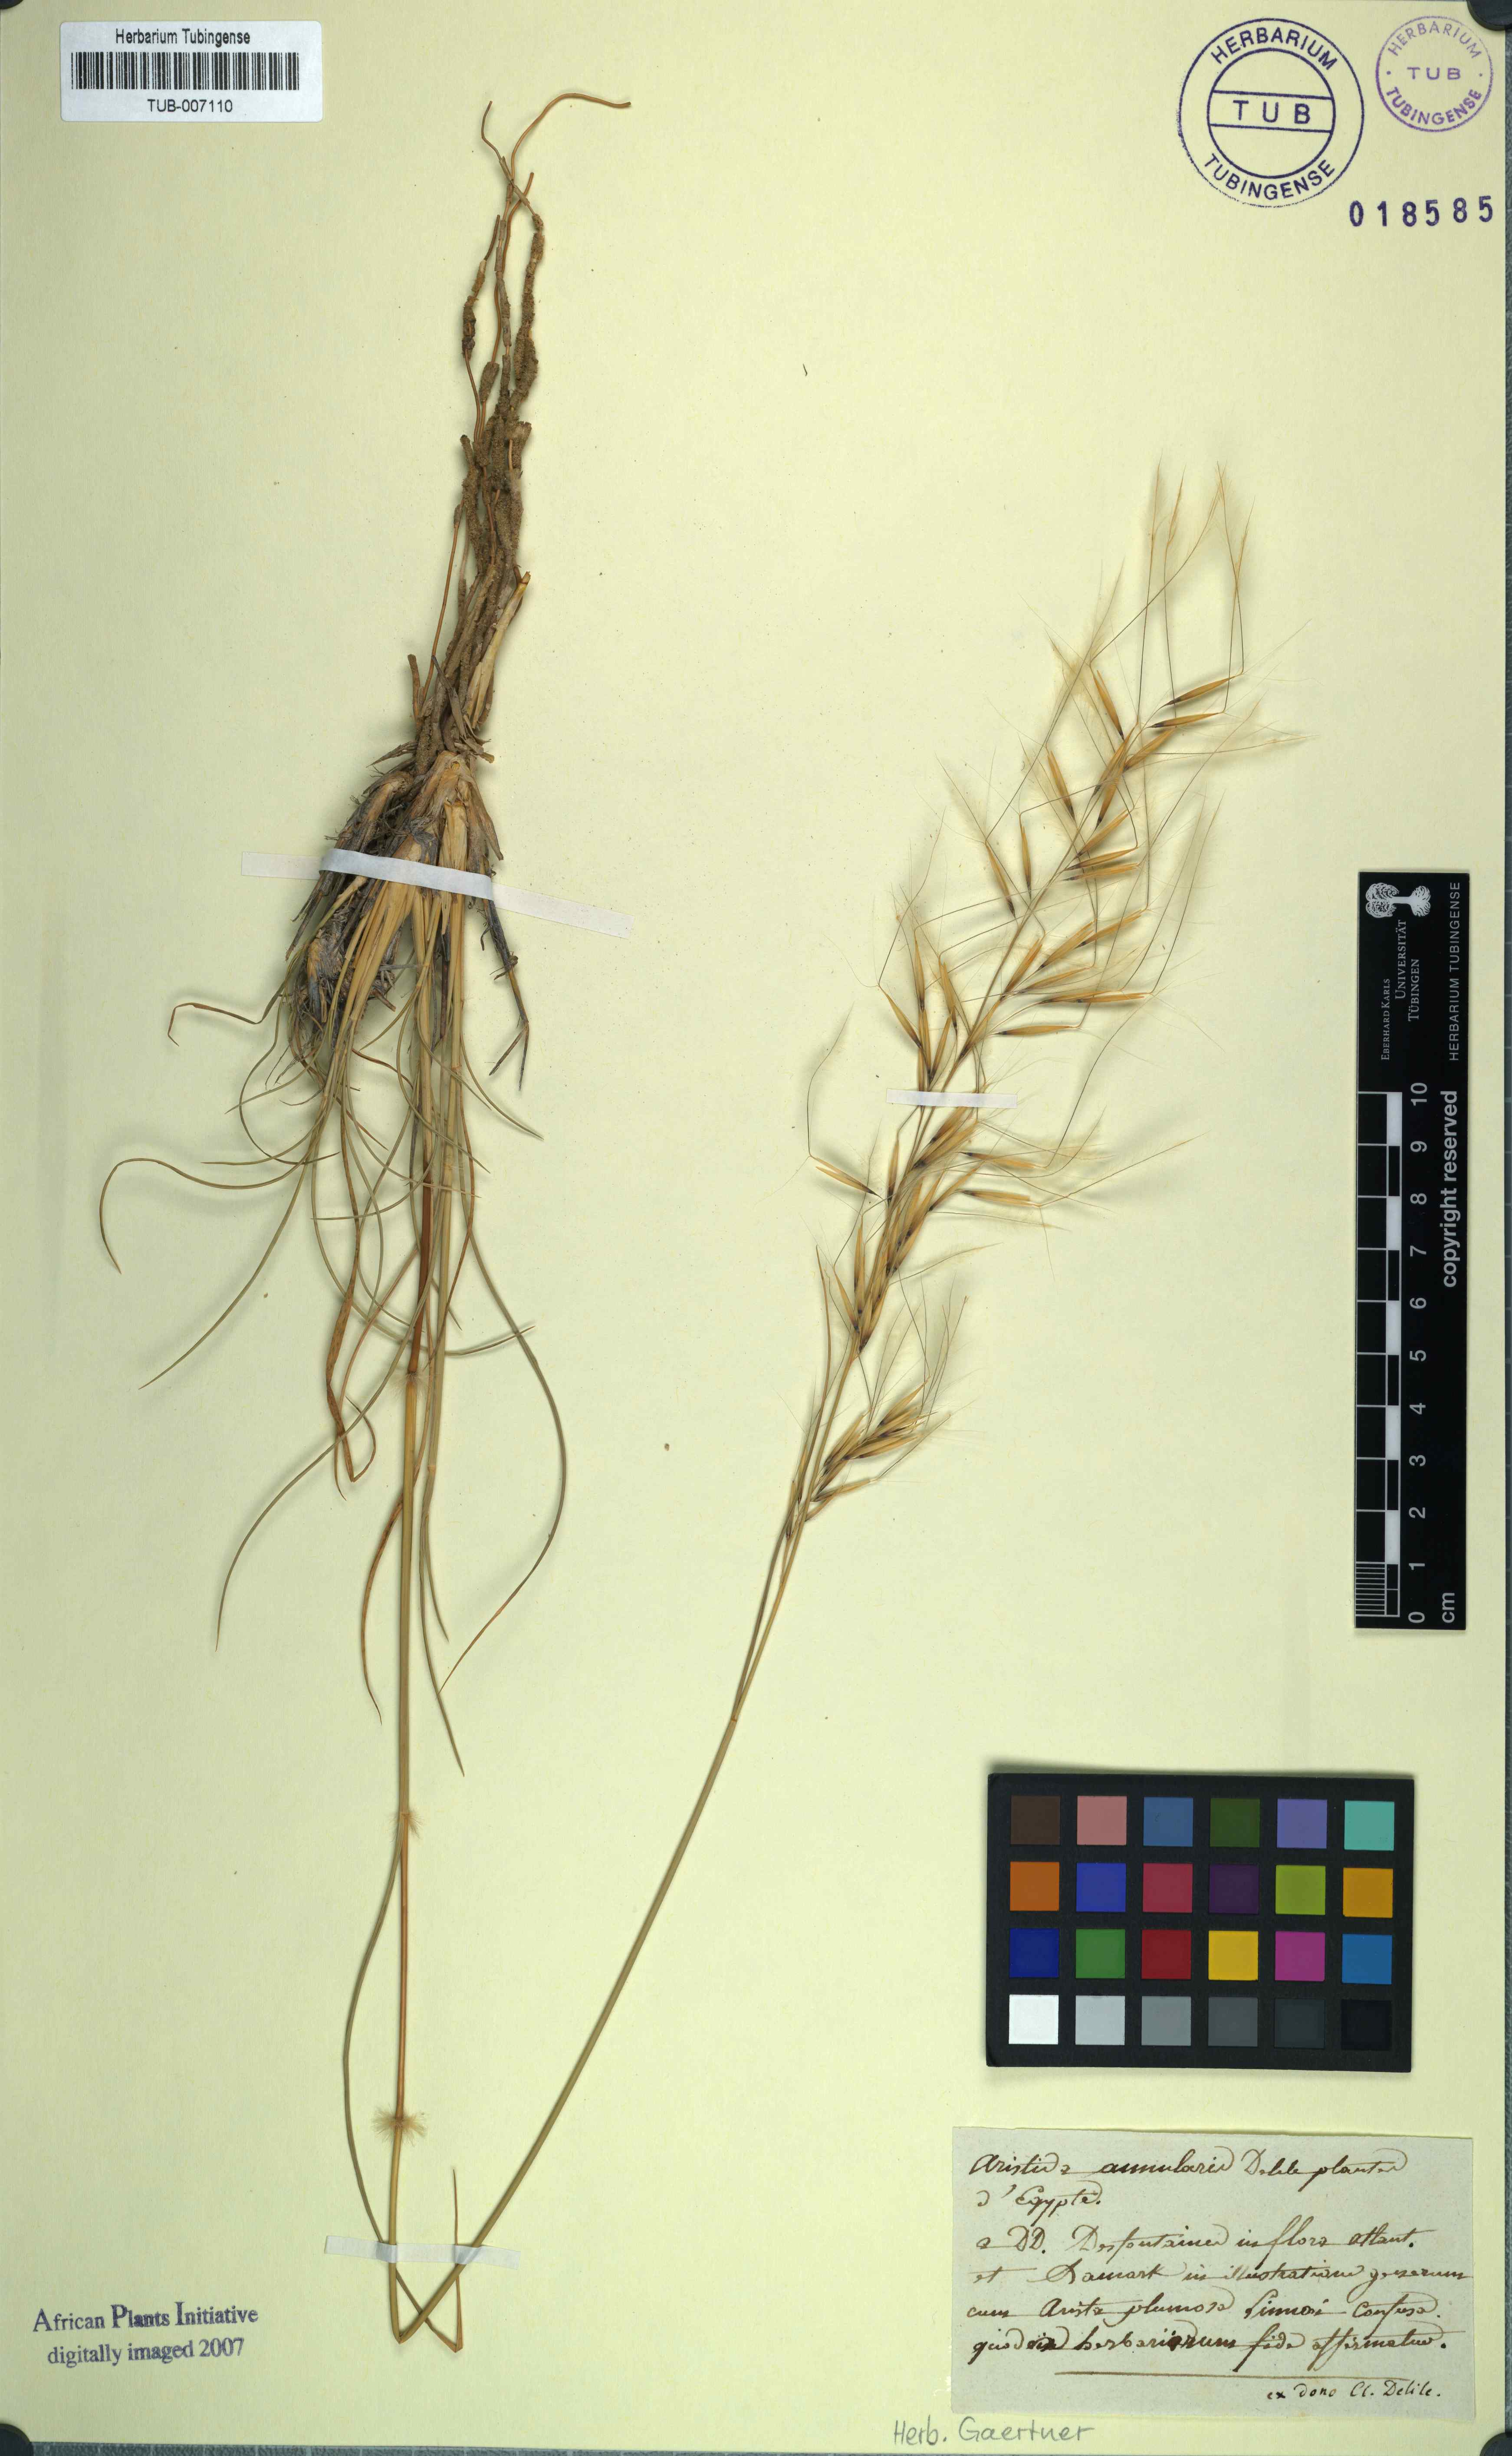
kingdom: Plantae
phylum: Tracheophyta
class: Liliopsida
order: Poales
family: Poaceae
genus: Aristida
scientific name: Aristida
